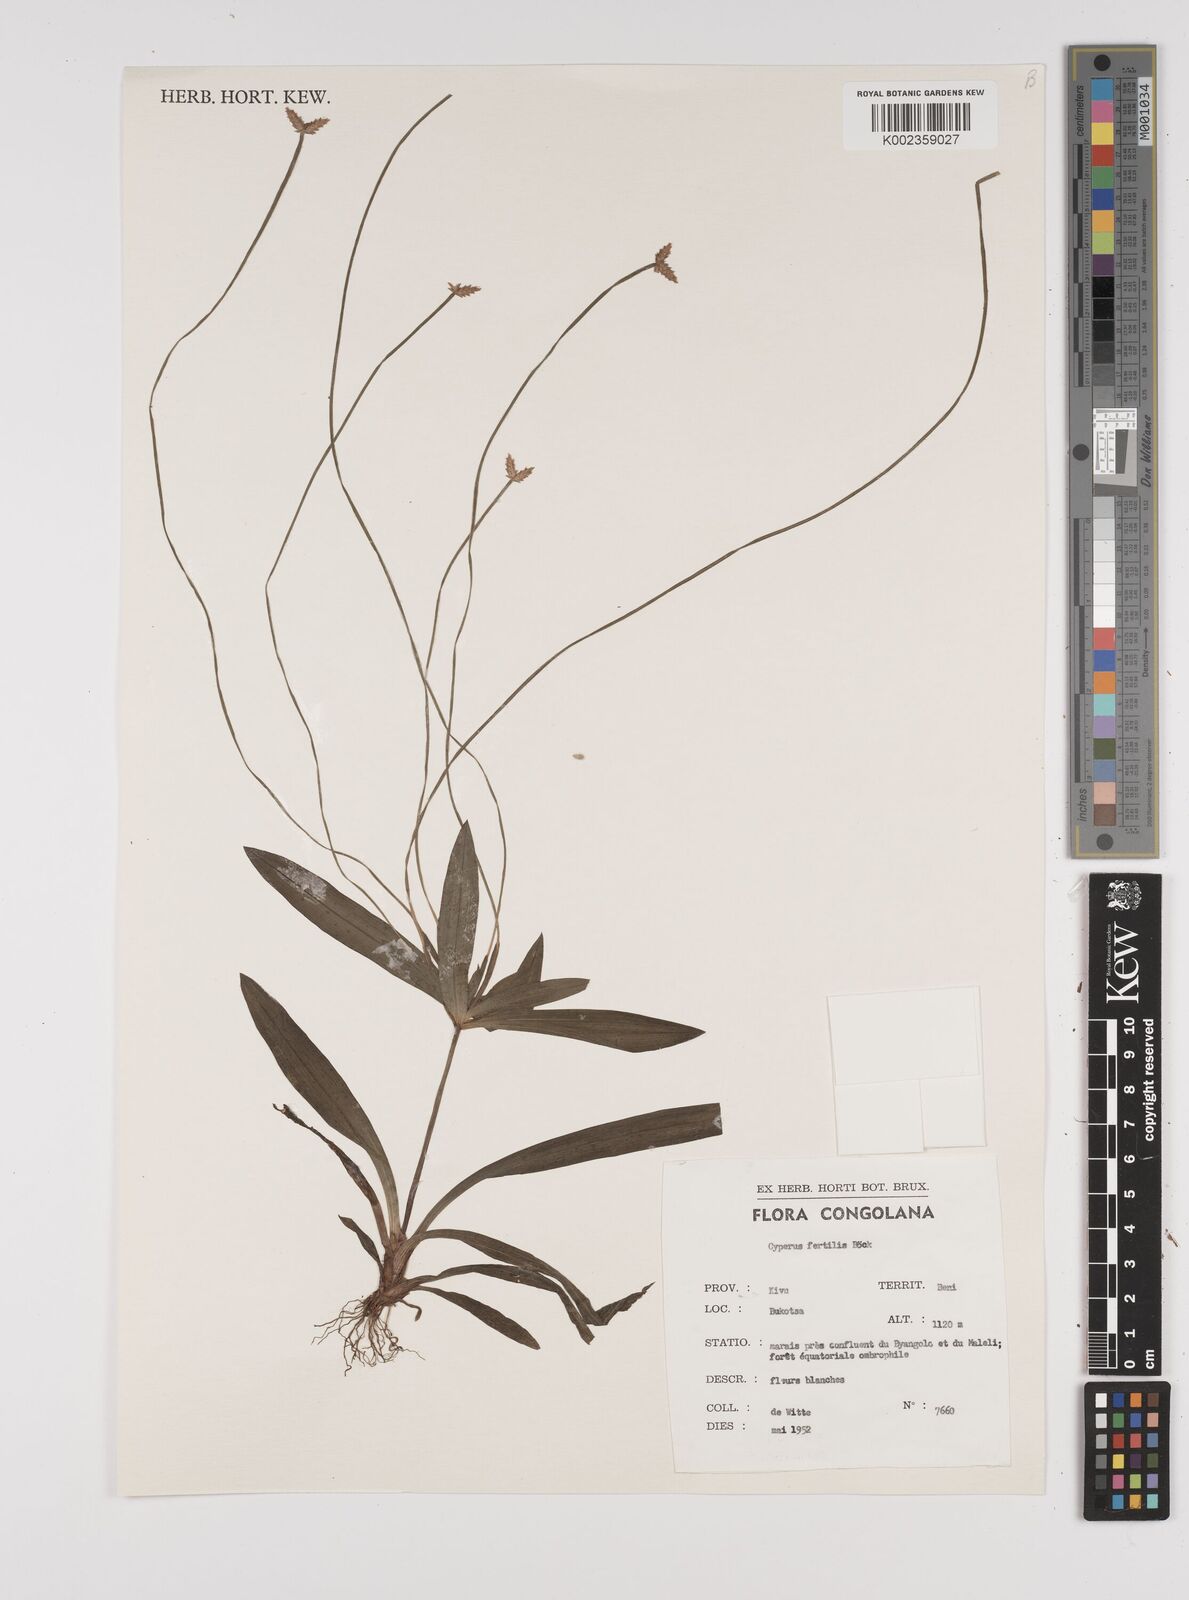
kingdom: Plantae
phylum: Tracheophyta
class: Liliopsida
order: Poales
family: Cyperaceae
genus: Cyperus
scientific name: Cyperus fertilis
